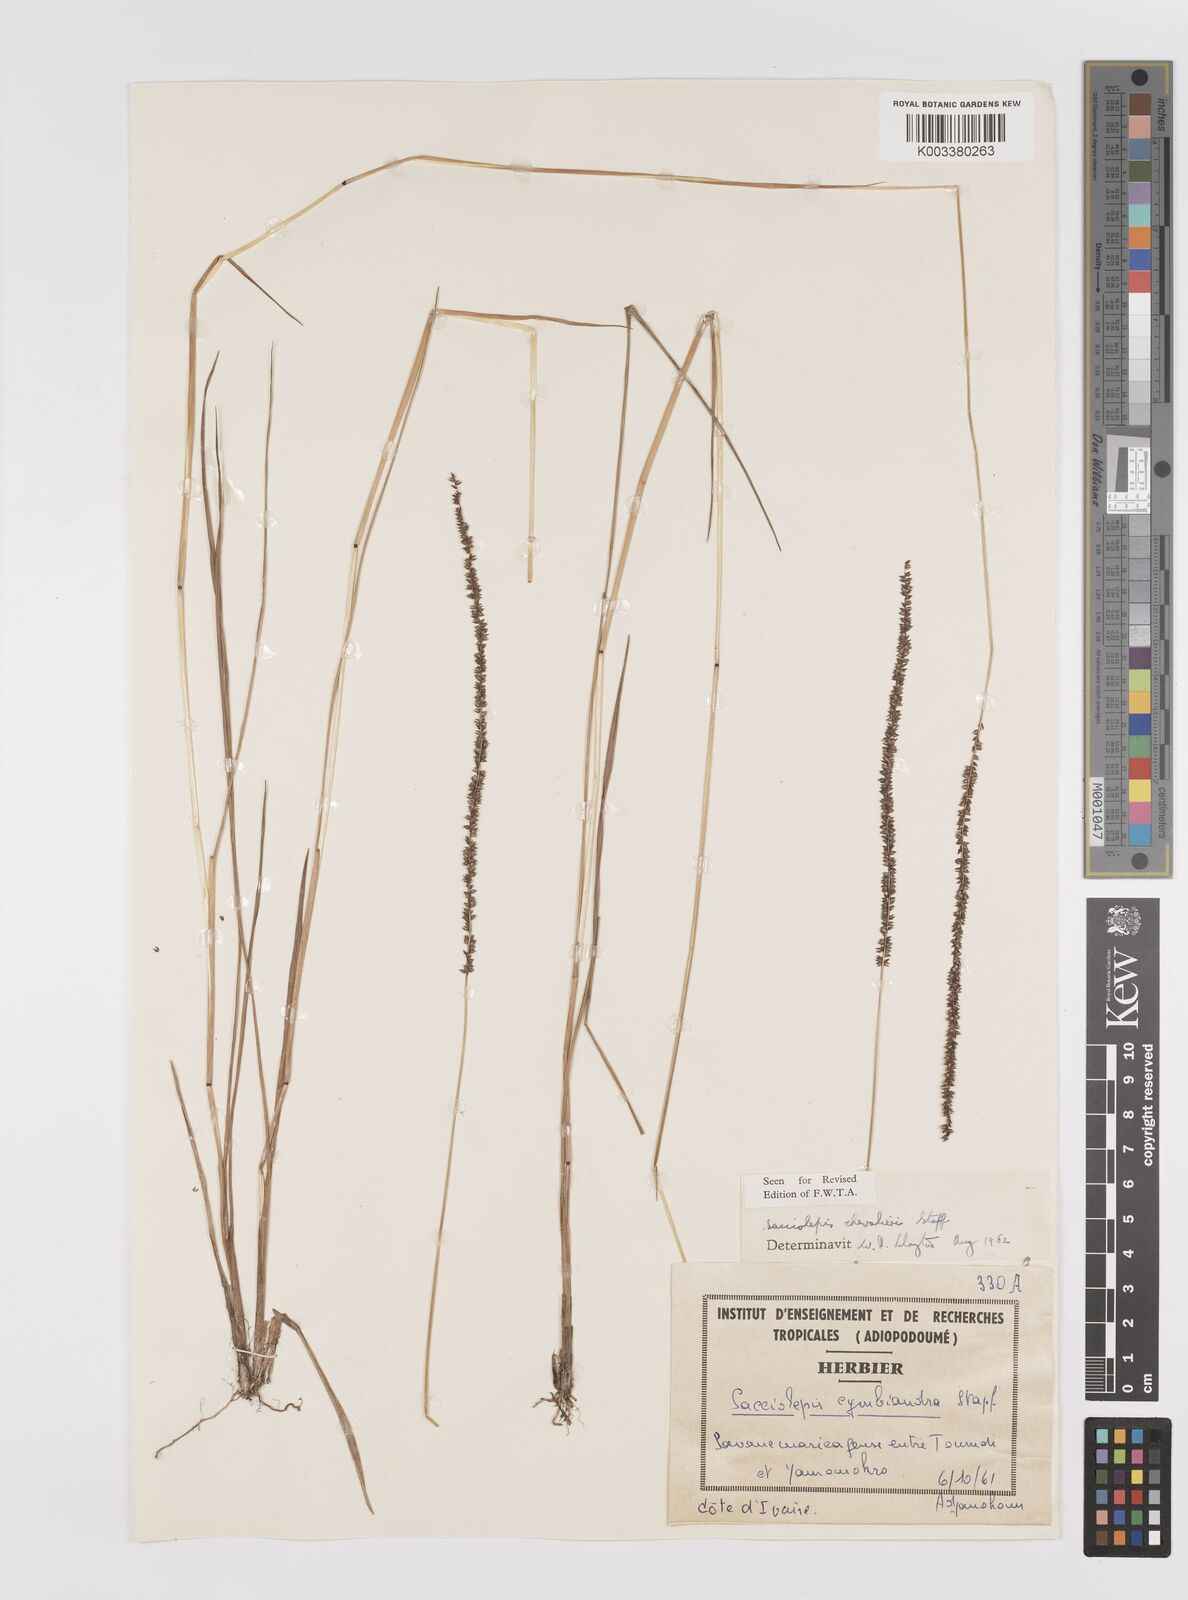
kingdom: Plantae
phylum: Tracheophyta
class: Liliopsida
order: Poales
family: Poaceae
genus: Sacciolepis
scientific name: Sacciolepis typhura
